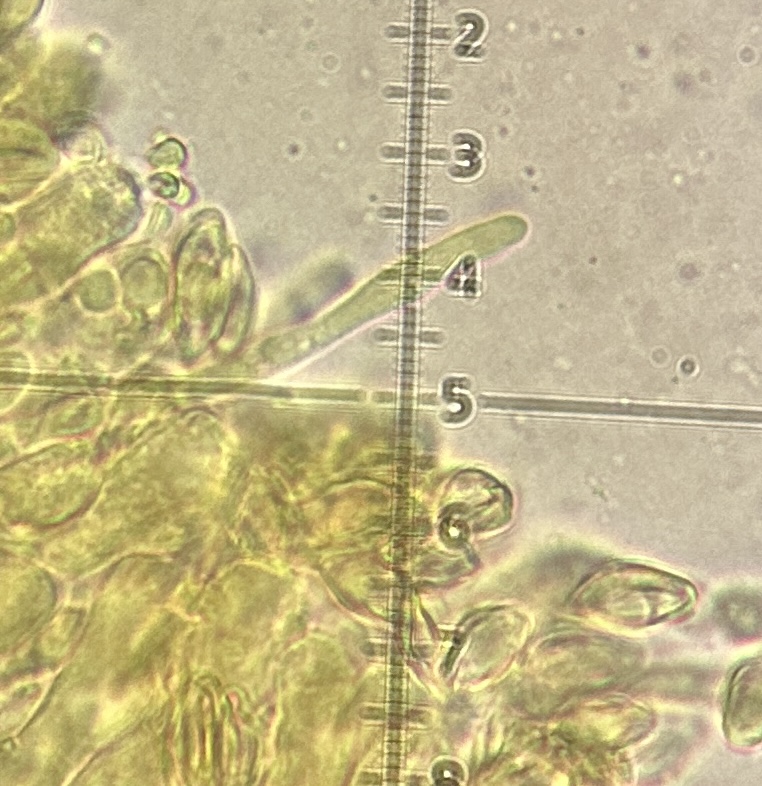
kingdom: Fungi
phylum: Basidiomycota
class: Agaricomycetes
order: Agaricales
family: Entolomataceae
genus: Clitopilus
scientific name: Clitopilus
